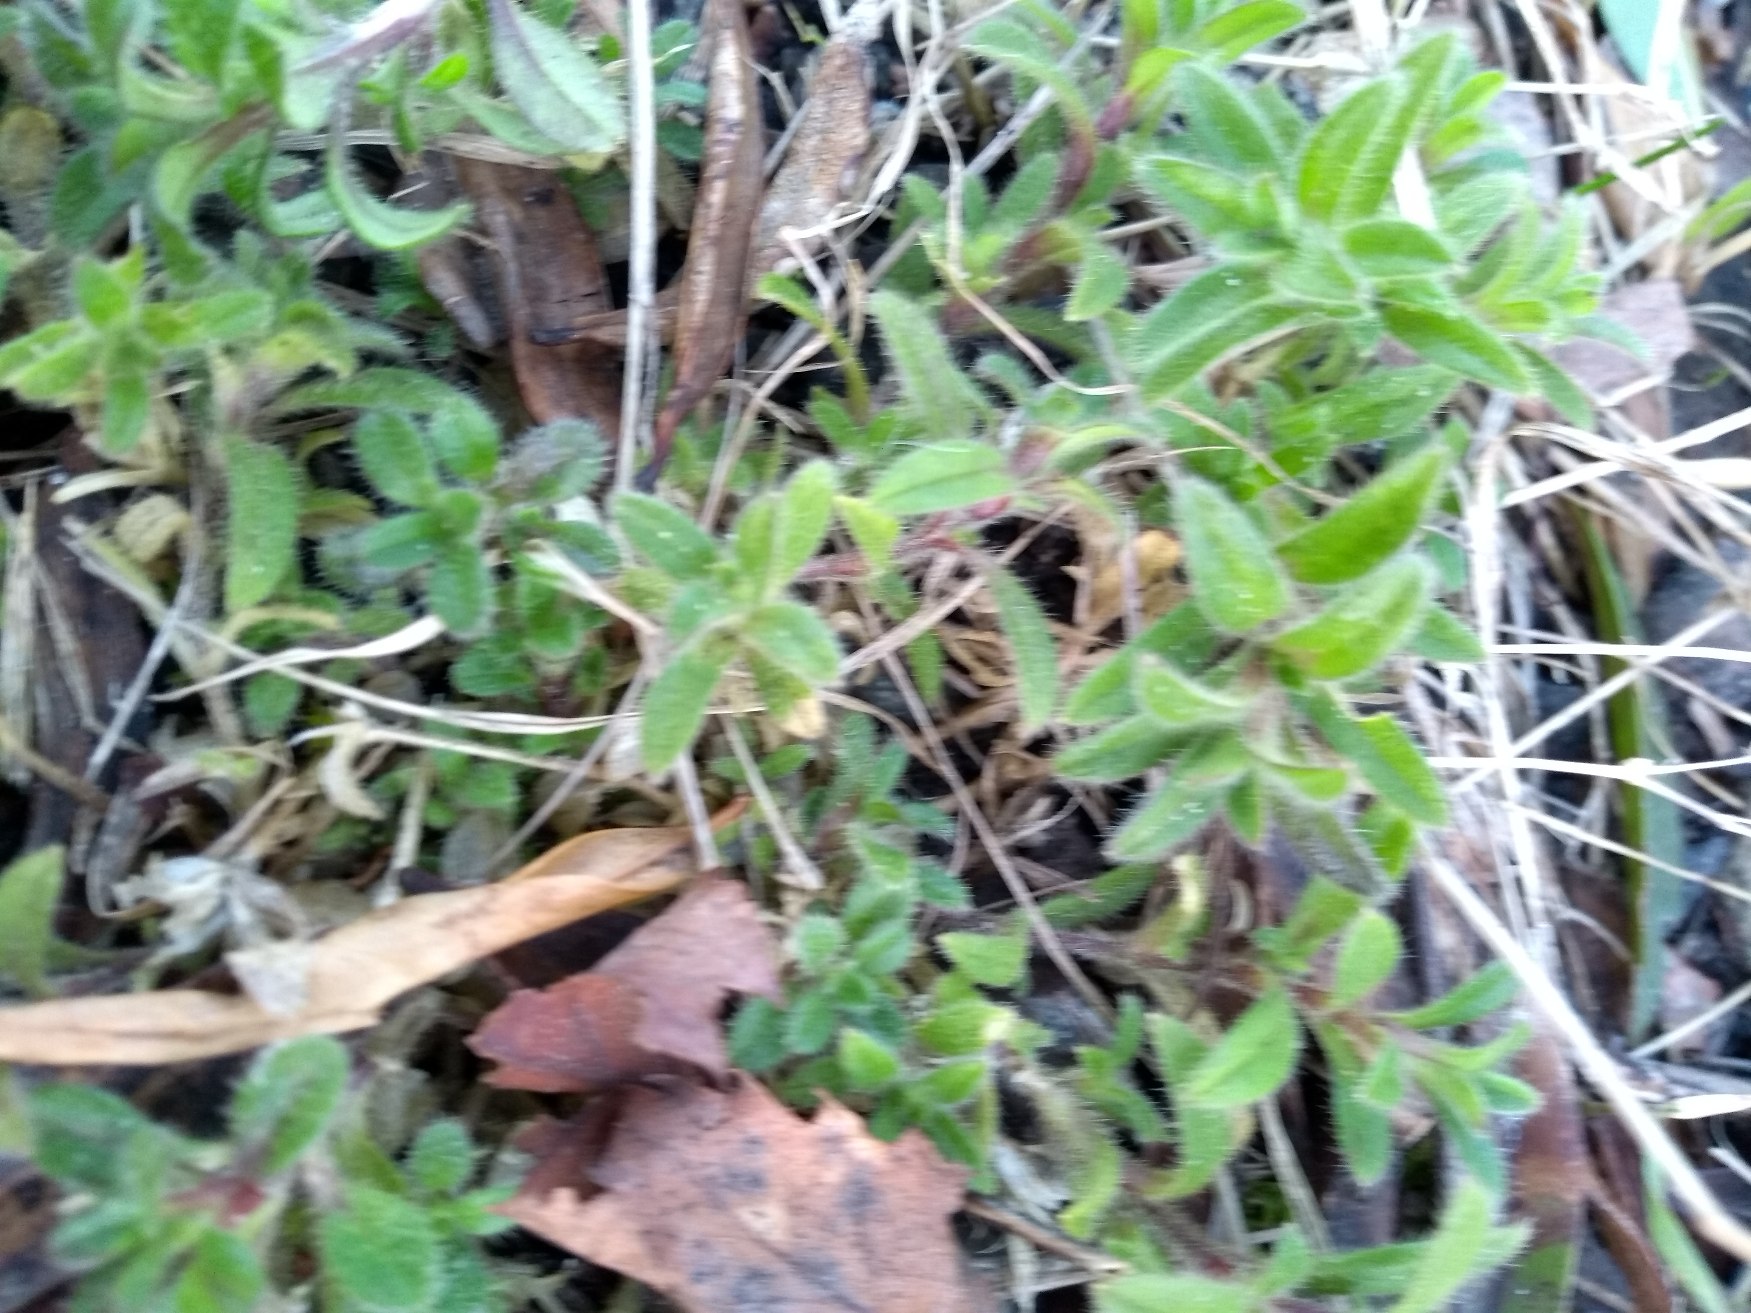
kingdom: Plantae
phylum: Tracheophyta
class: Magnoliopsida
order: Caryophyllales
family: Caryophyllaceae
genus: Cerastium
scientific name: Cerastium fontanum
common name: Almindelig hønsetarm
